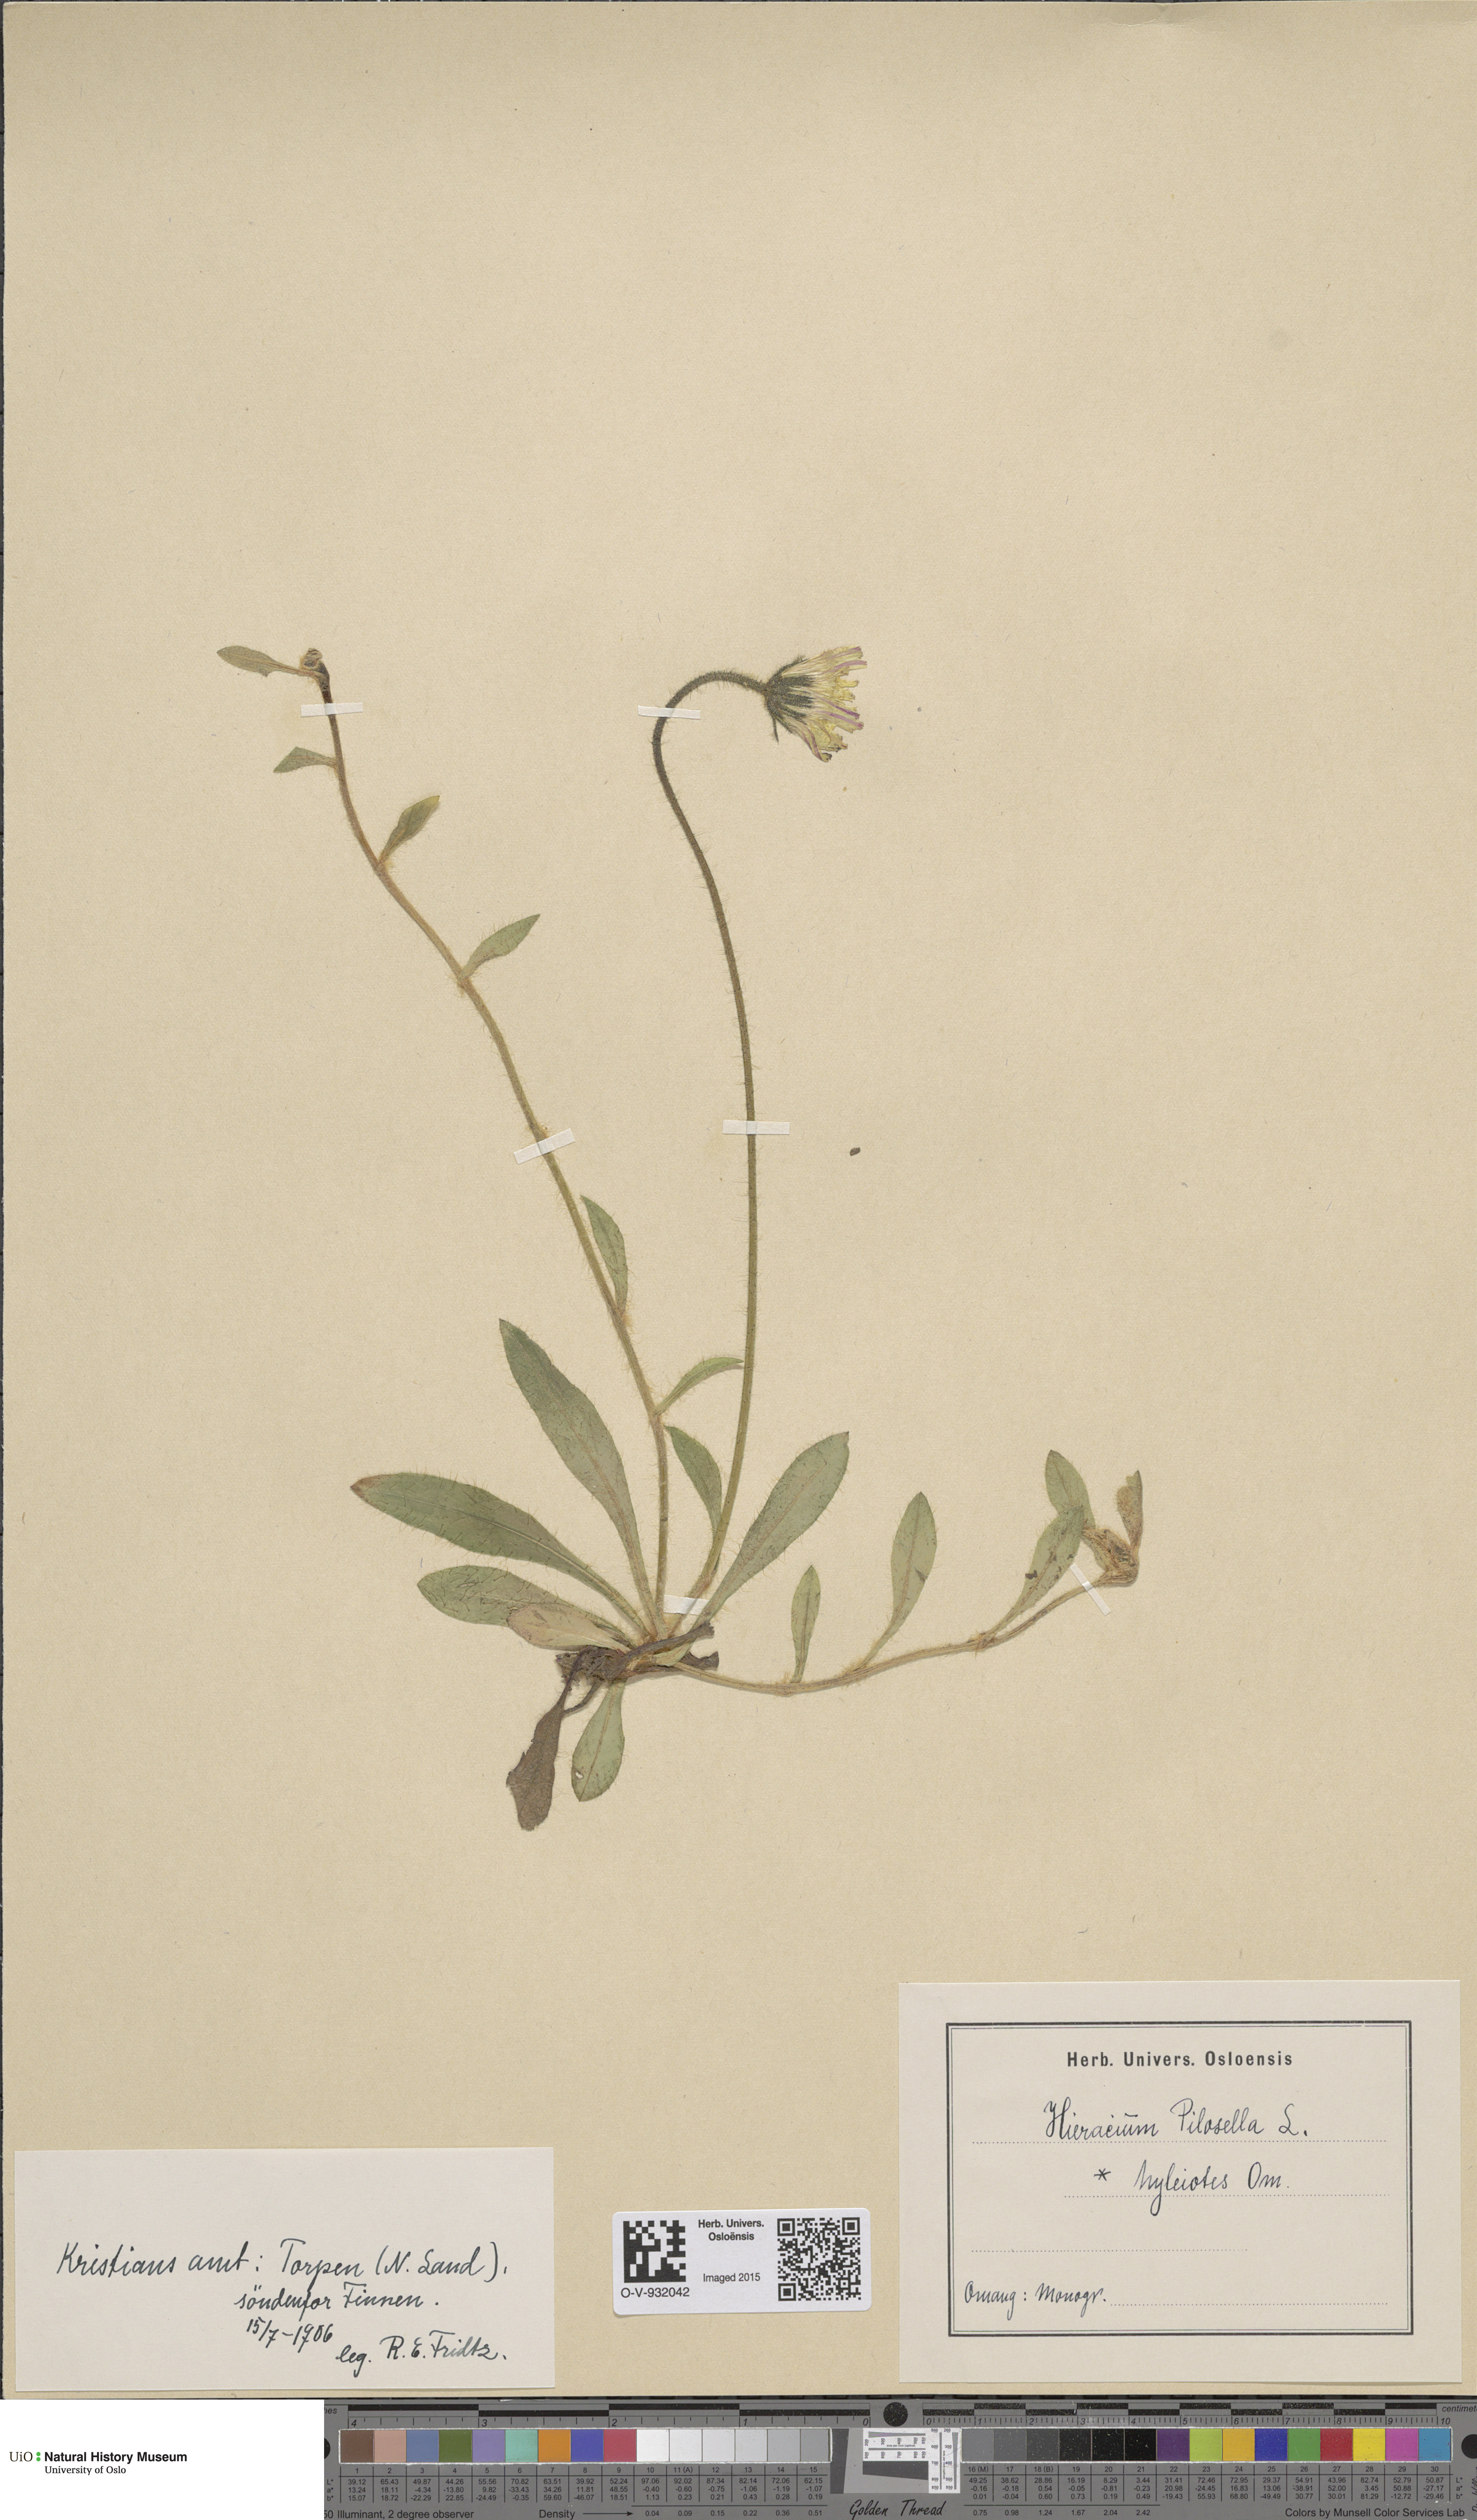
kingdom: Plantae
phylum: Tracheophyta
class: Magnoliopsida
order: Asterales
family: Asteraceae
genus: Pilosella
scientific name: Pilosella officinarum
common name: Mouse-ear hawkweed
